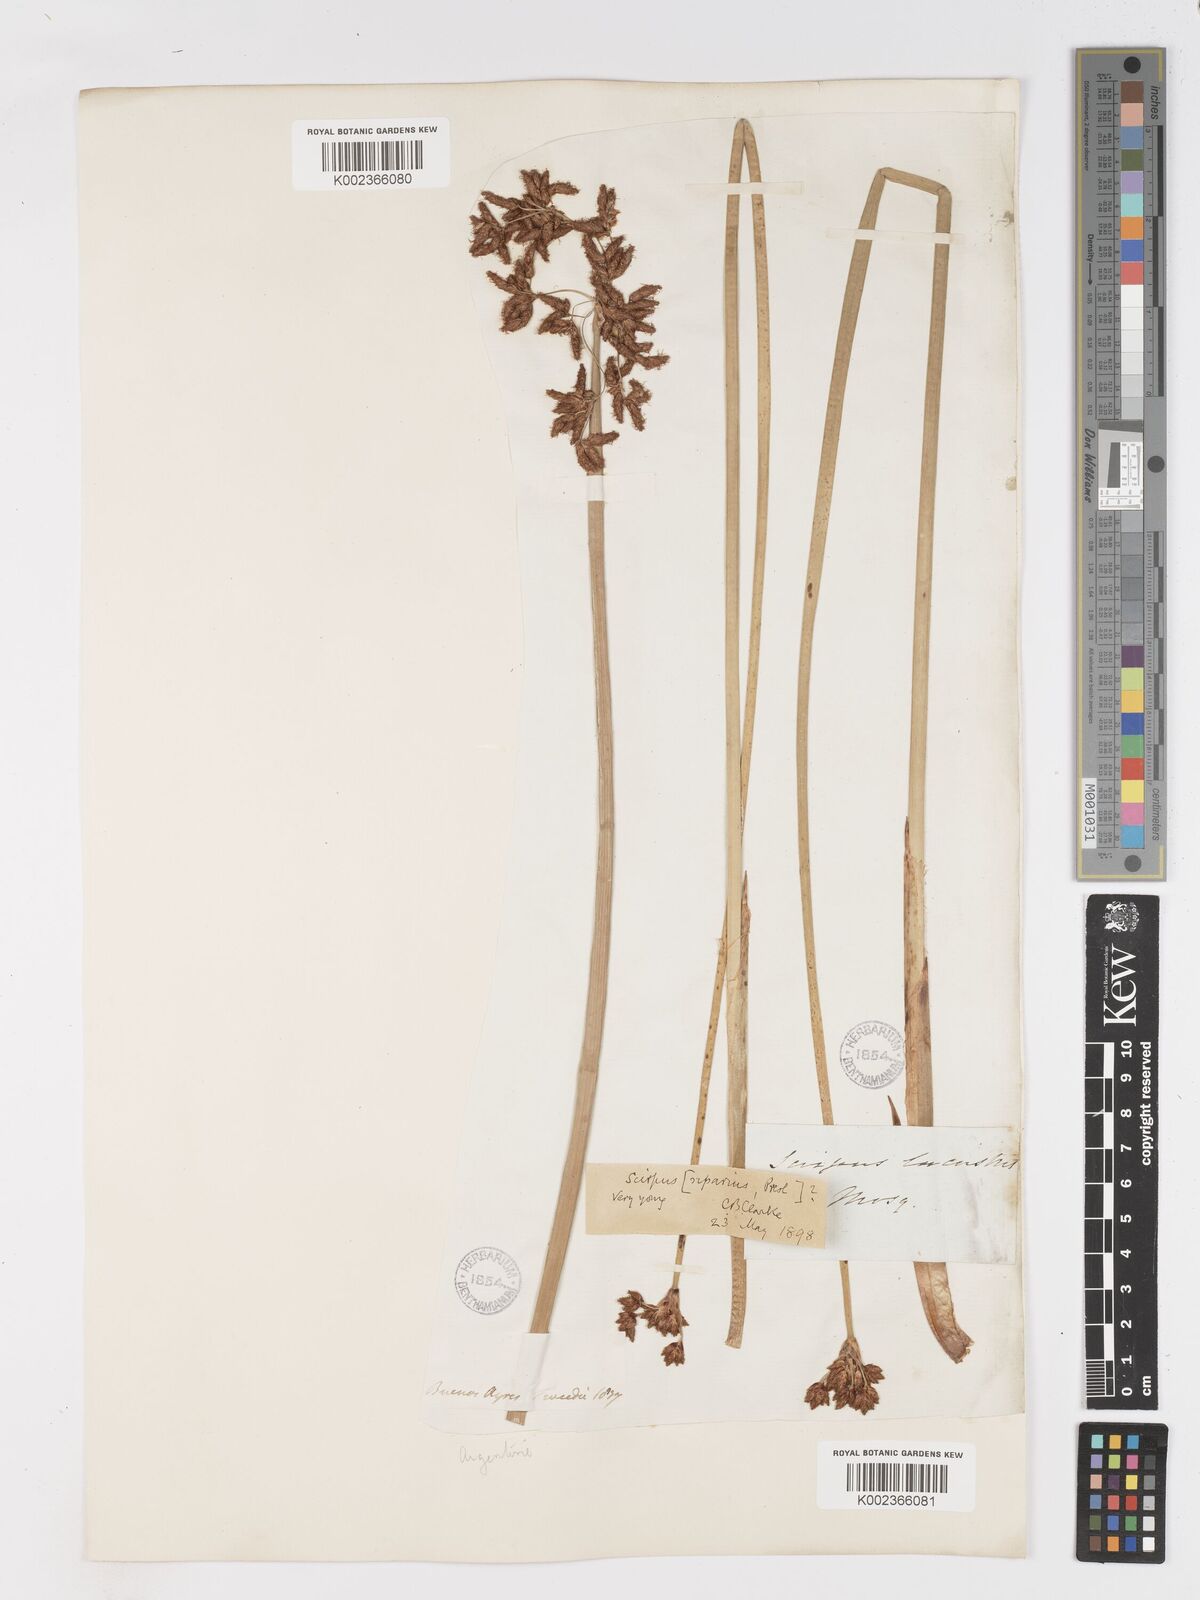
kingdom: Plantae
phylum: Tracheophyta
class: Liliopsida
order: Poales
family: Cyperaceae
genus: Schoenoplectus
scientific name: Schoenoplectus californicus
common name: California bulrush
